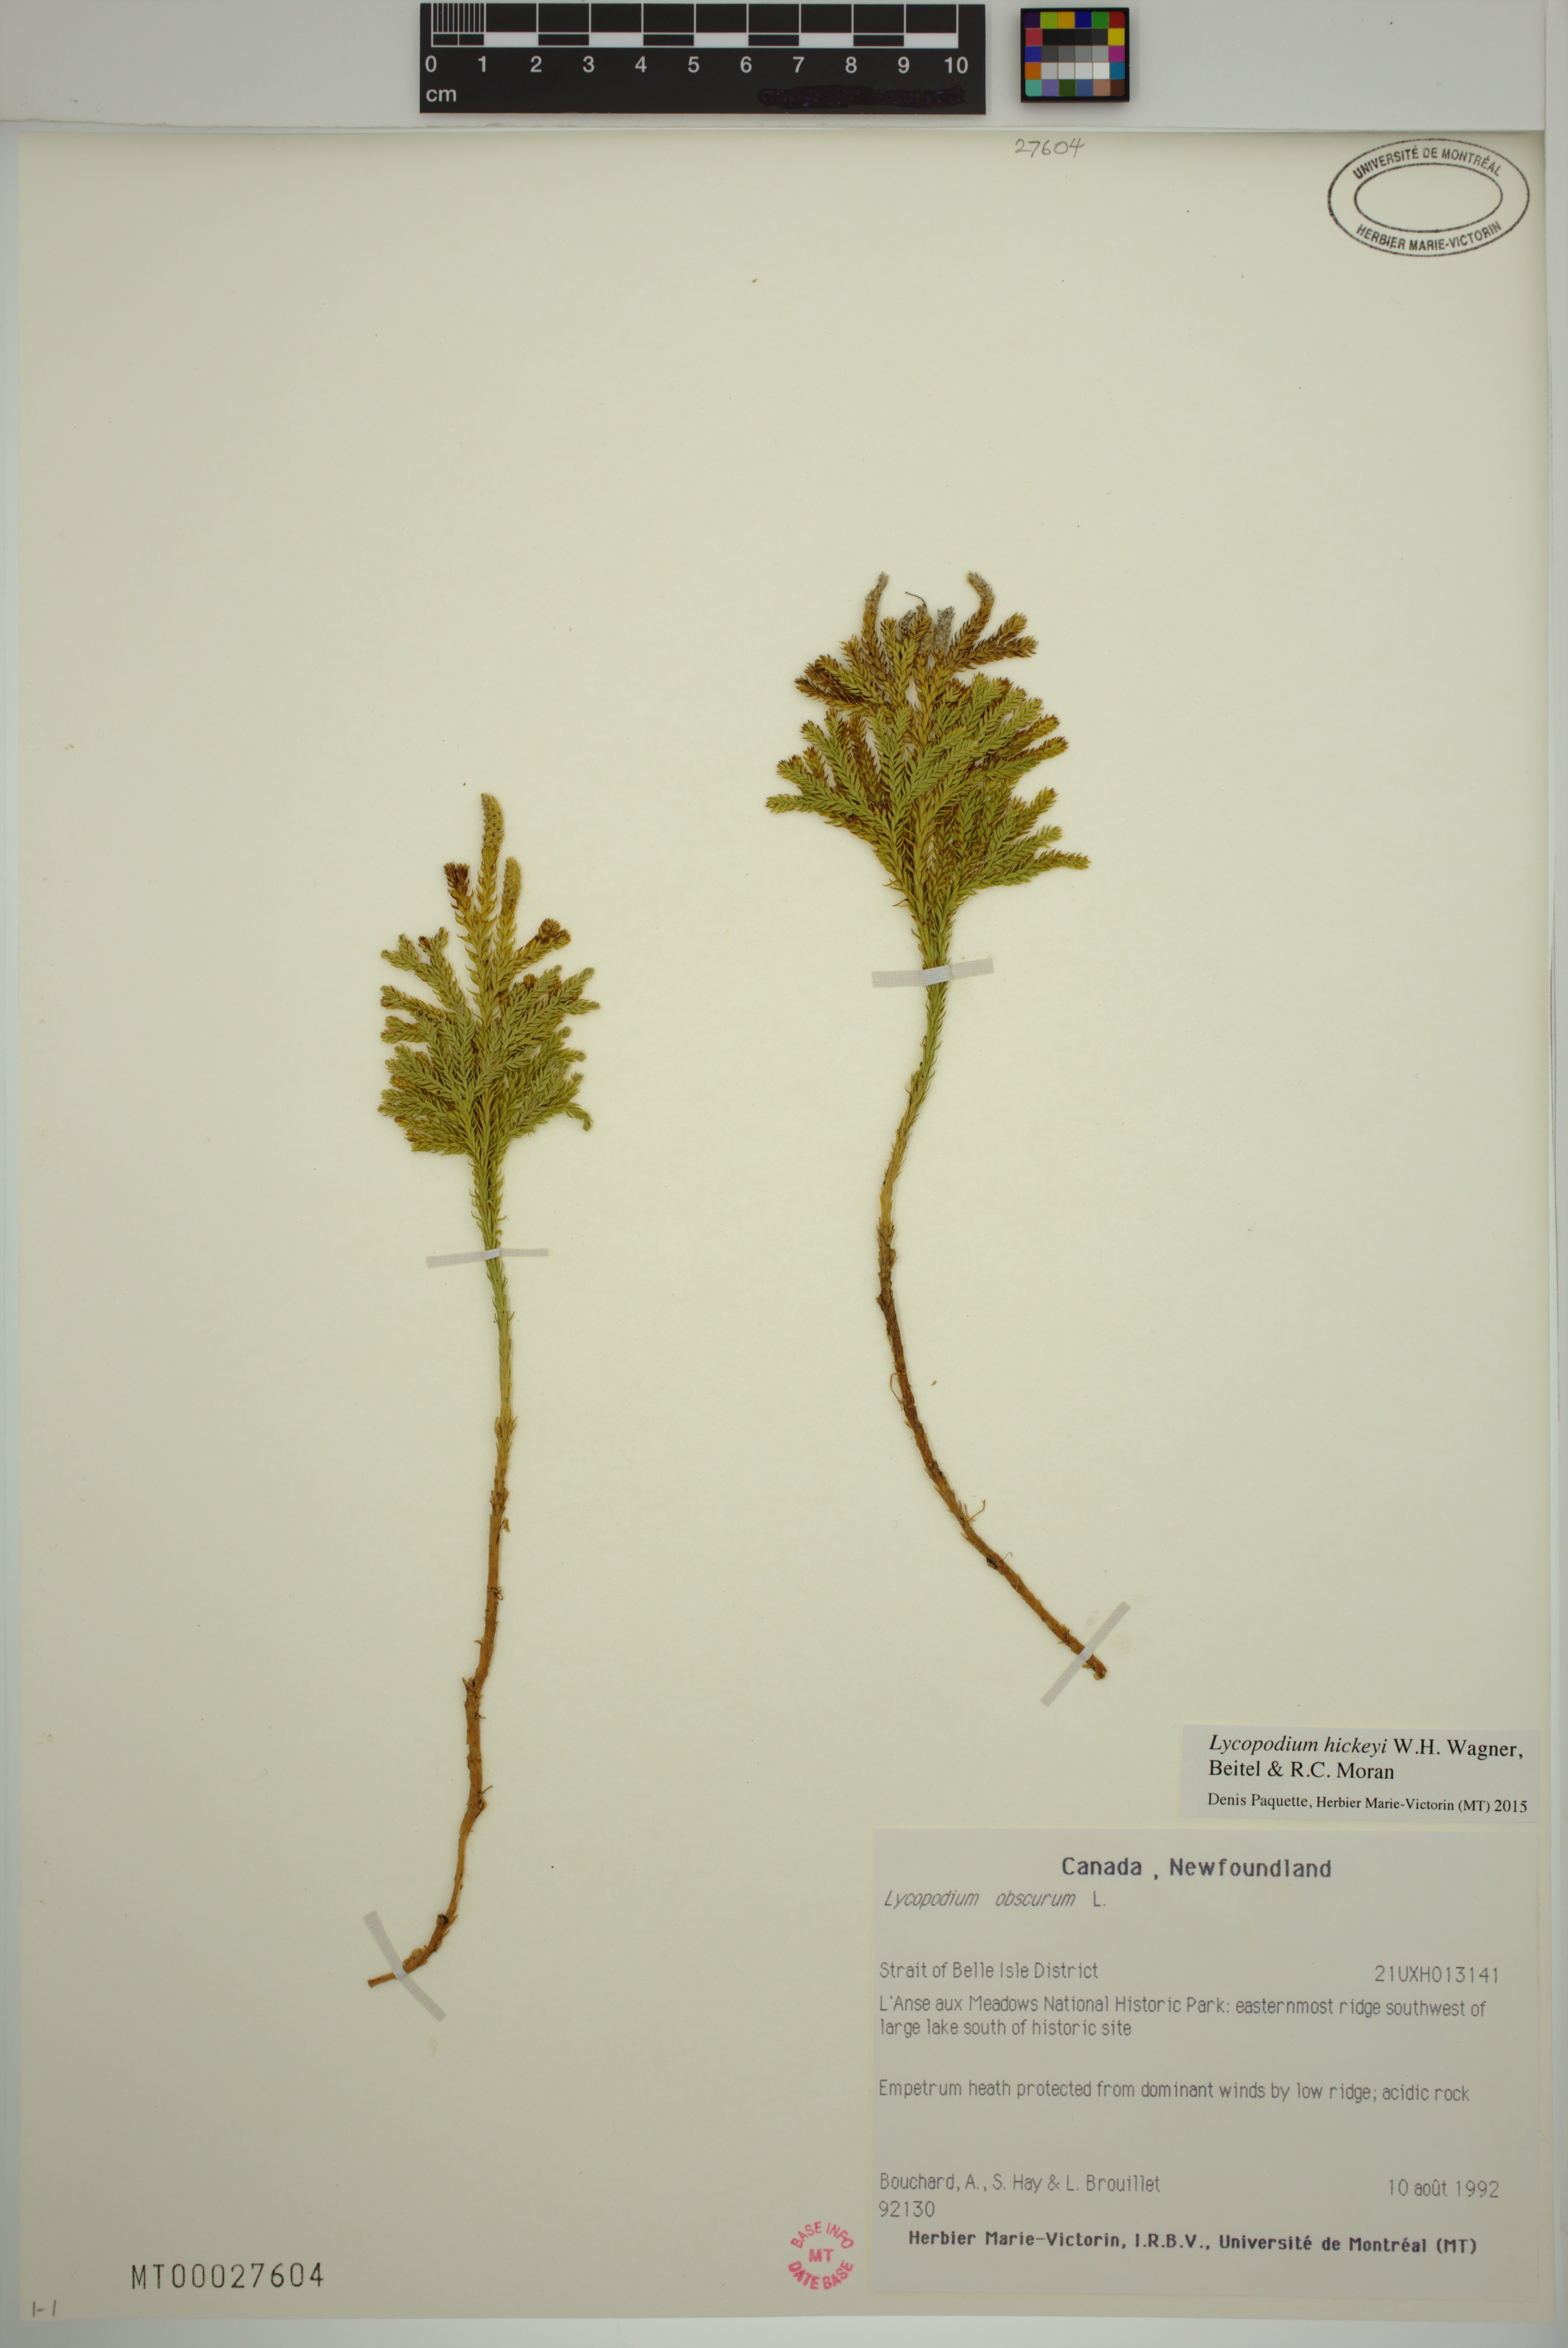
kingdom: Plantae
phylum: Tracheophyta
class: Lycopodiopsida
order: Lycopodiales
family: Lycopodiaceae
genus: Dendrolycopodium
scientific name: Dendrolycopodium hickeyi
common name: Hickey's clubmoss
